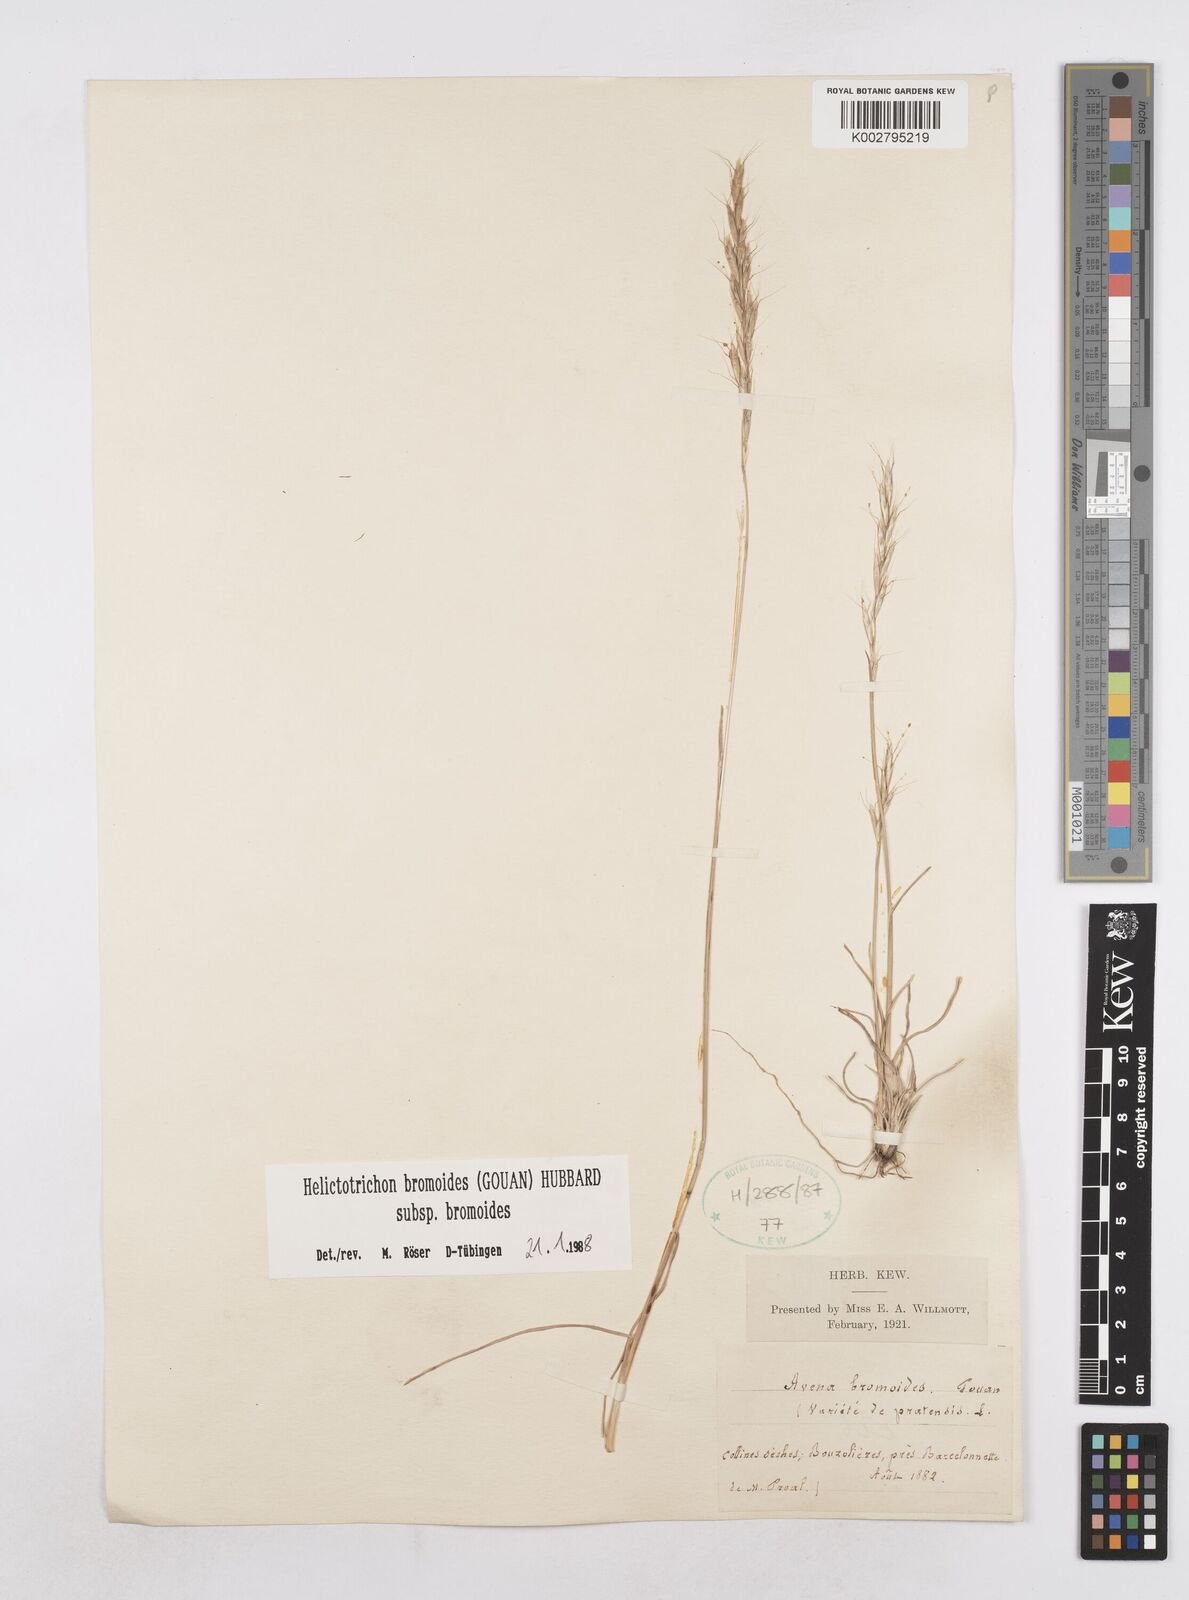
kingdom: Plantae
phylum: Tracheophyta
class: Liliopsida
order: Poales
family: Poaceae
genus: Helictochloa
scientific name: Helictochloa bromoides
